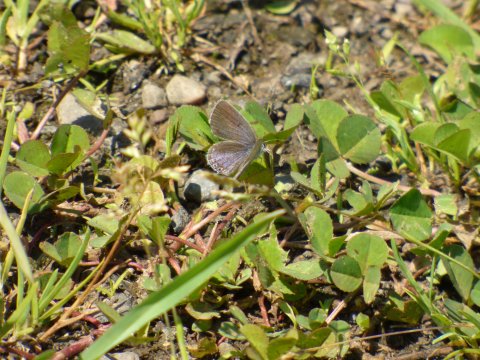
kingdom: Animalia
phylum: Arthropoda
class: Insecta
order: Lepidoptera
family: Lycaenidae
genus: Elkalyce
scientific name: Elkalyce comyntas
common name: Eastern Tailed-Blue
